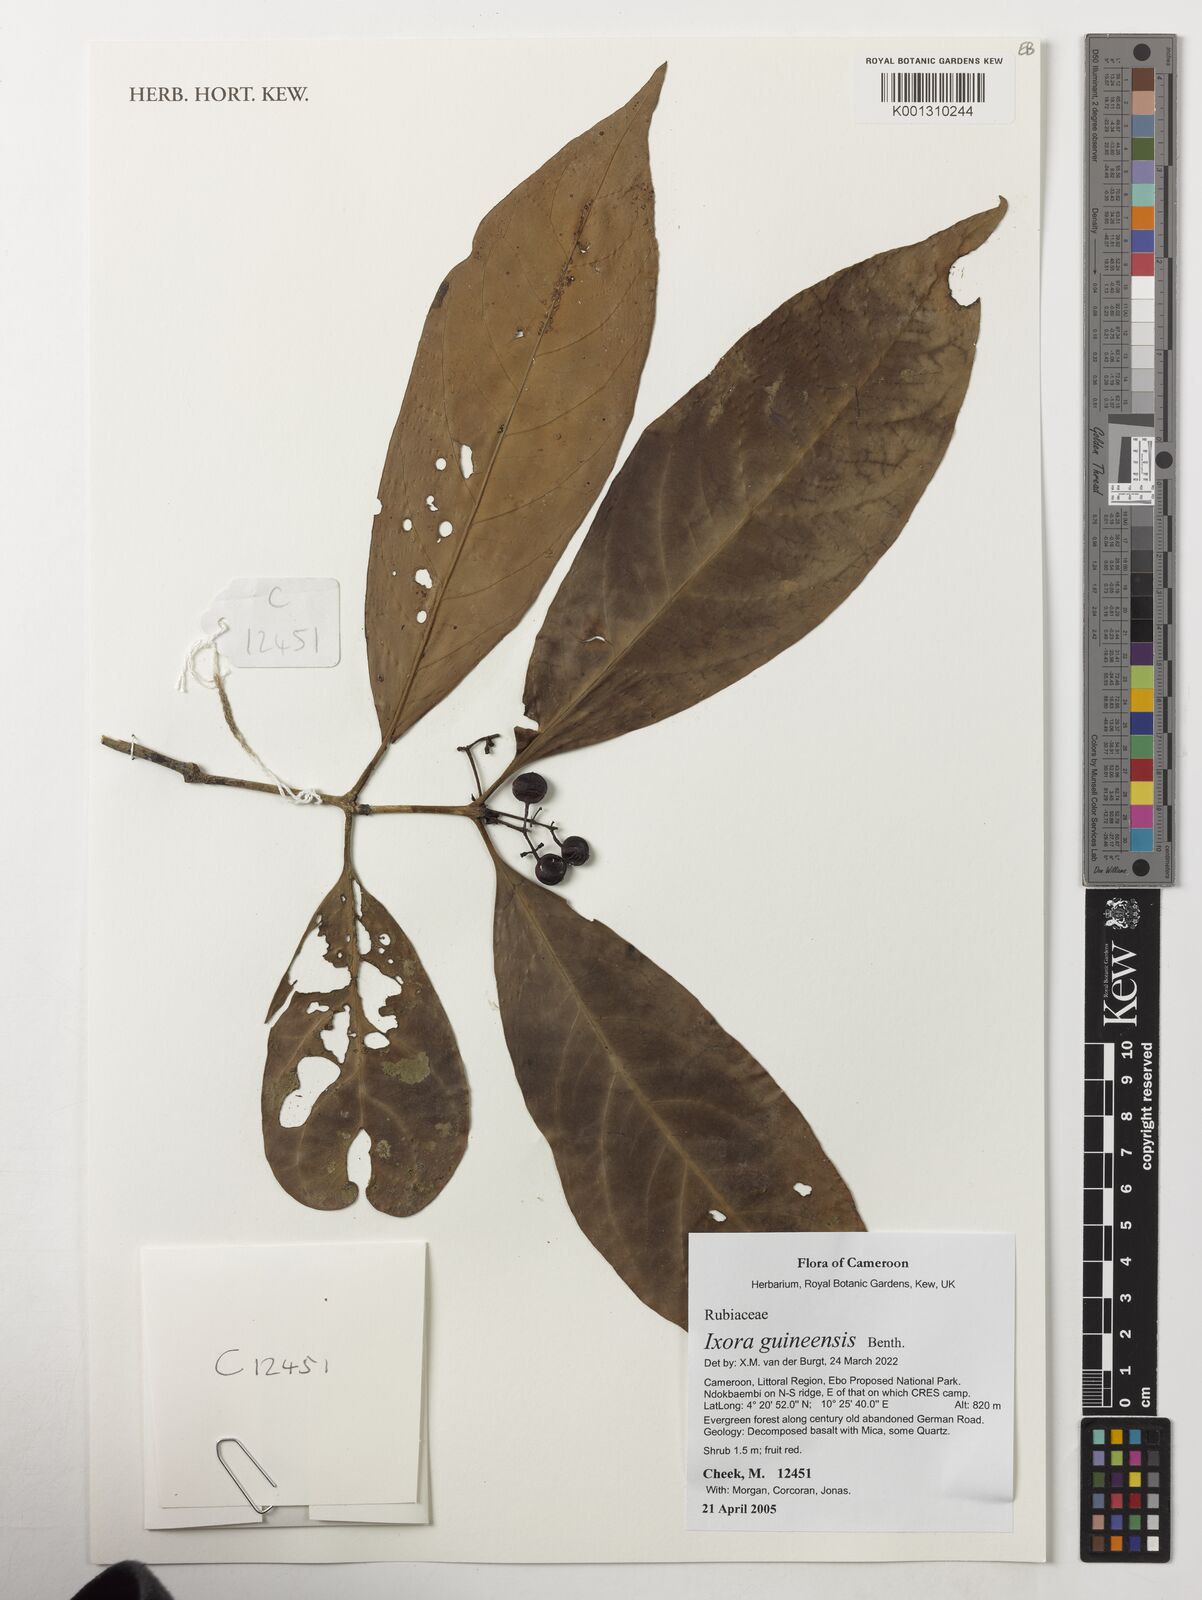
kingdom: Plantae
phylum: Tracheophyta
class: Magnoliopsida
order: Gentianales
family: Rubiaceae
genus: Faramea
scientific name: Faramea lourteigiana
